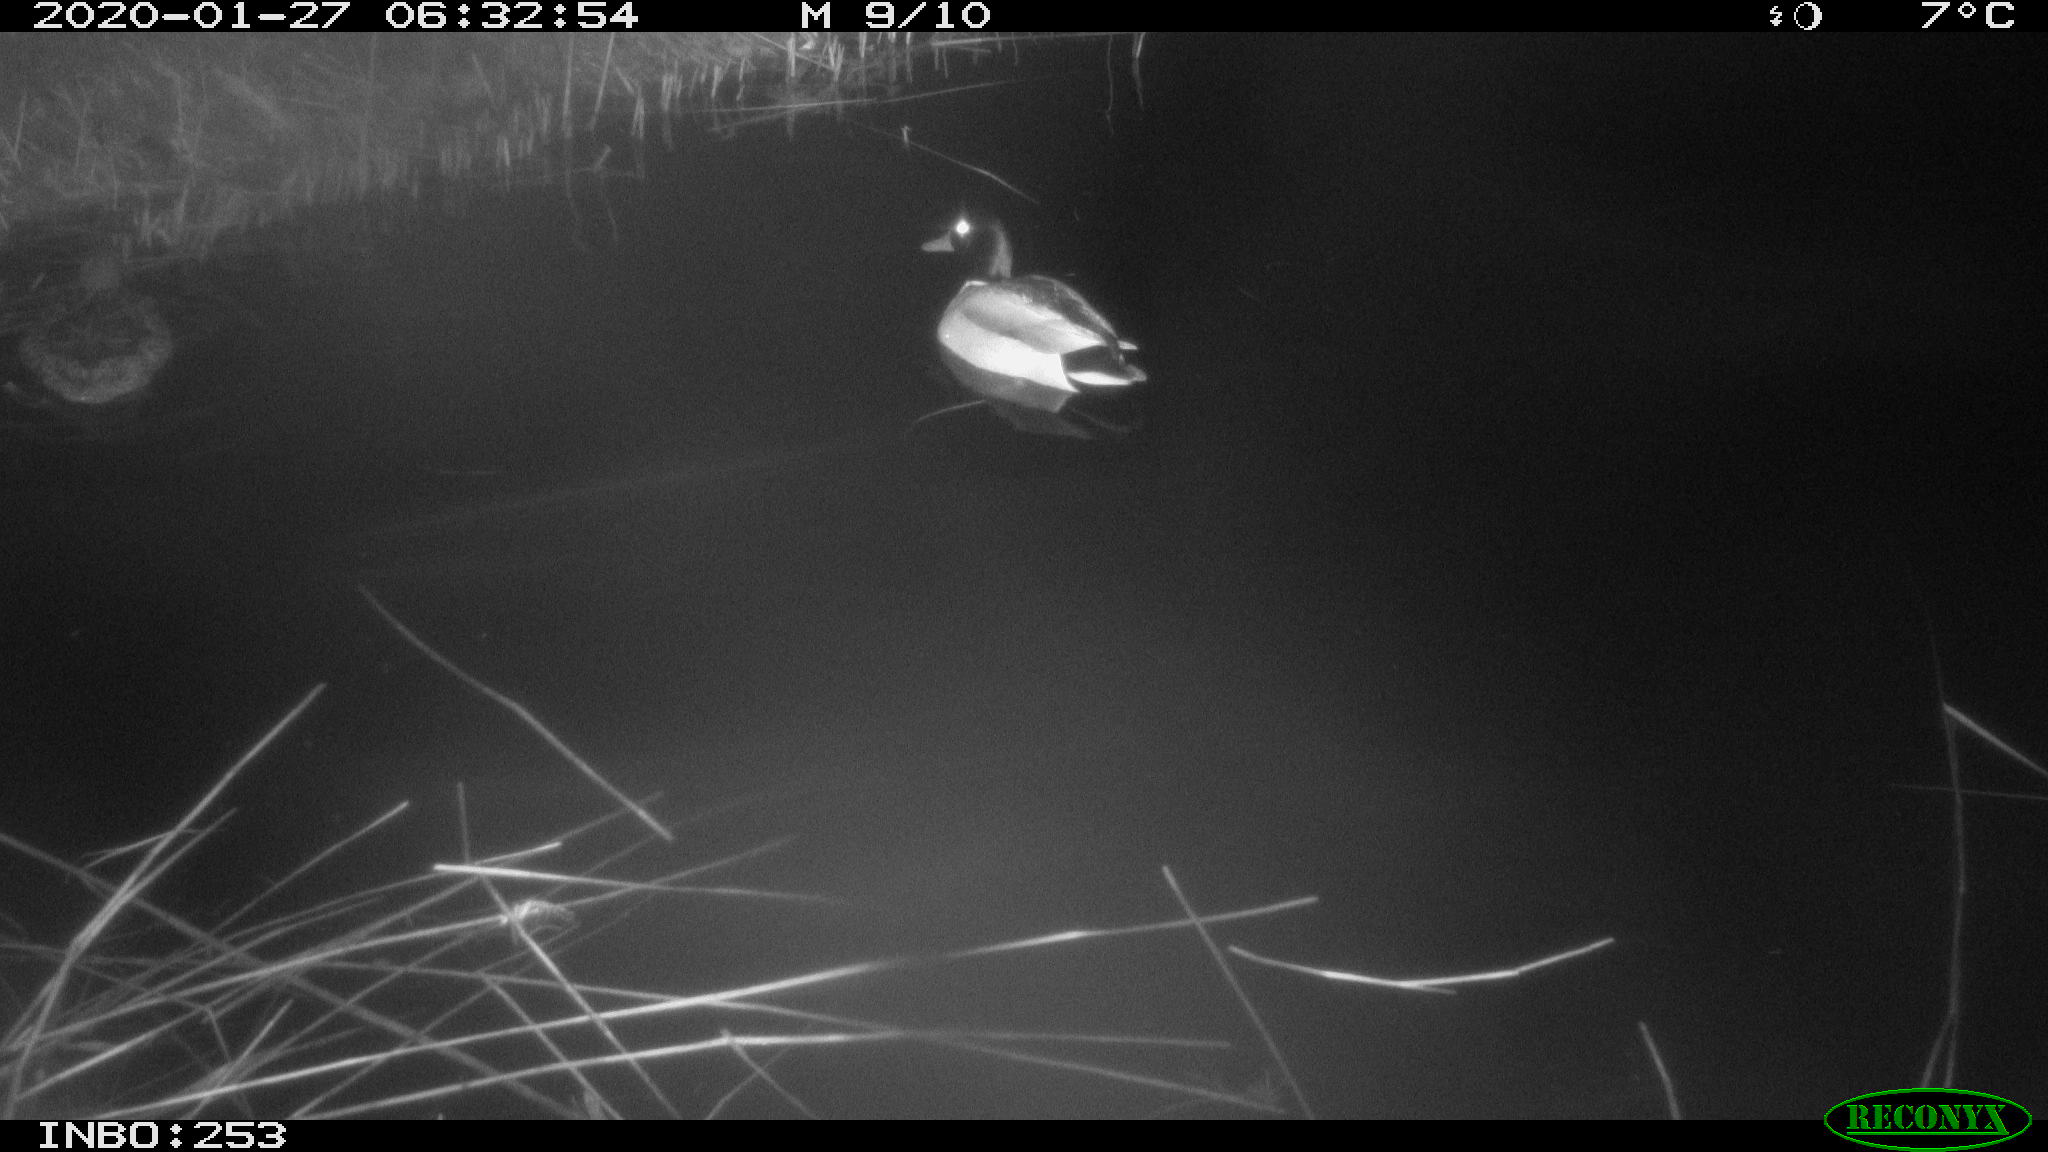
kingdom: Animalia
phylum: Chordata
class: Aves
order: Anseriformes
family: Anatidae
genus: Anas
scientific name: Anas platyrhynchos
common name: Mallard
